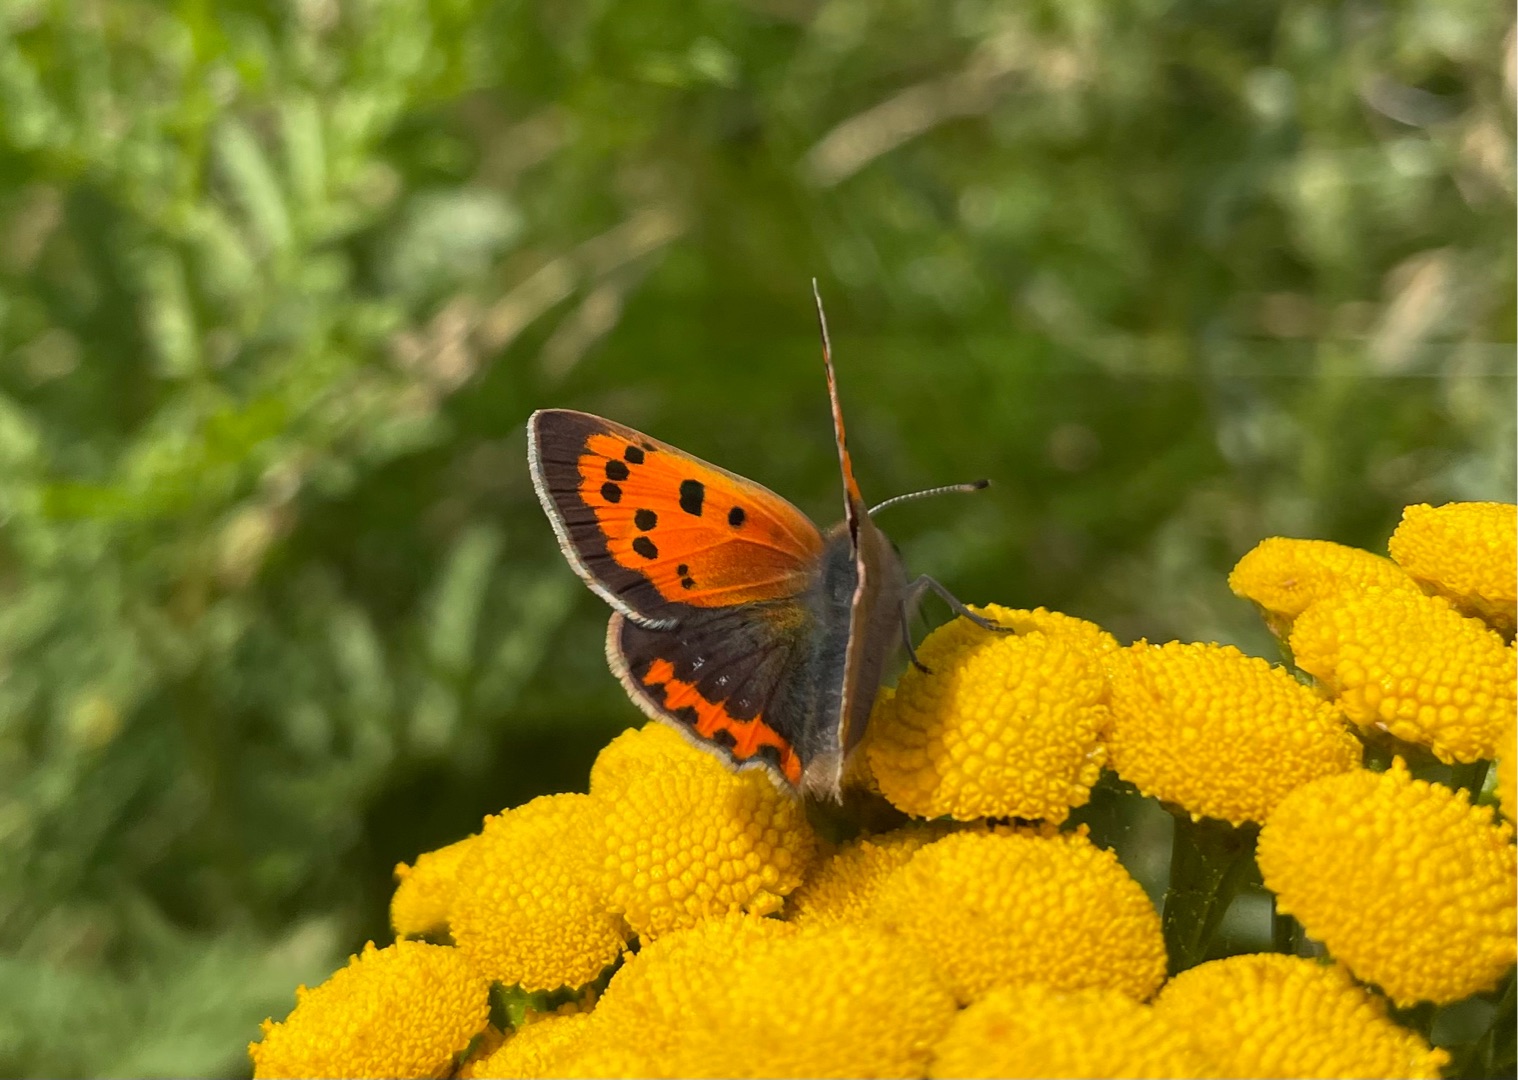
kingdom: Animalia
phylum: Arthropoda
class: Insecta
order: Lepidoptera
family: Lycaenidae
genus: Lycaena
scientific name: Lycaena phlaeas
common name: Lille ildfugl
